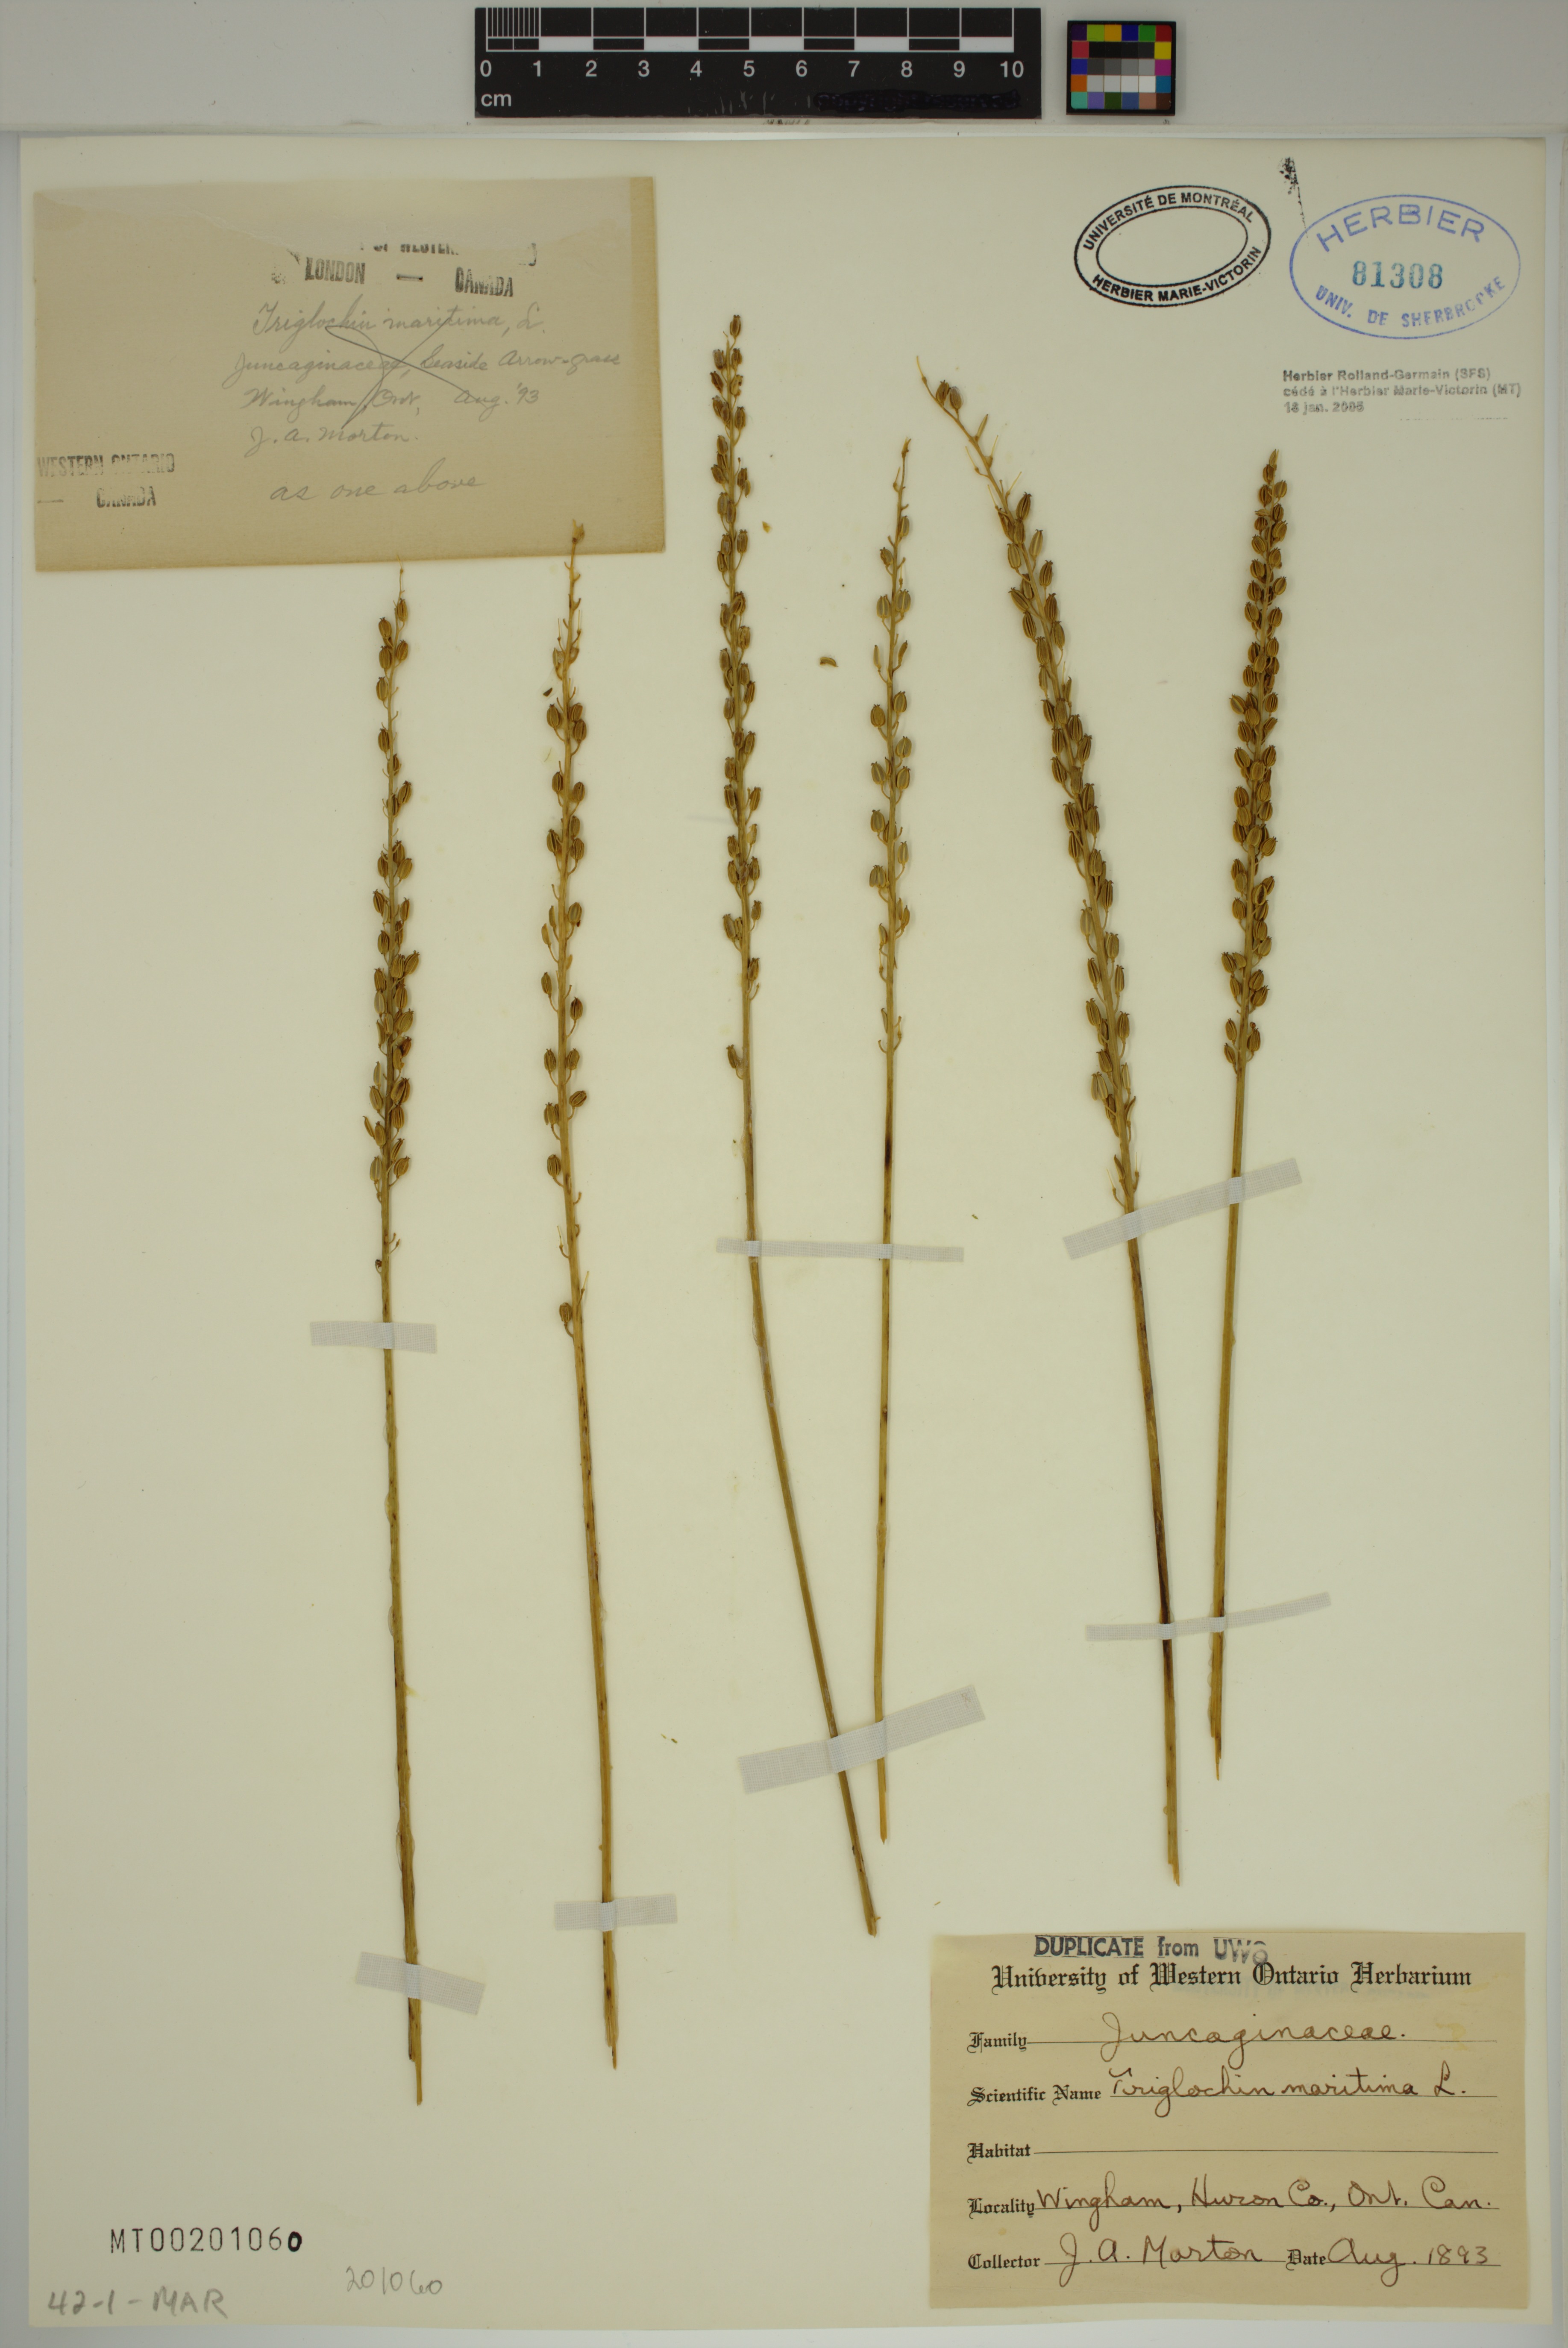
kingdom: Plantae
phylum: Tracheophyta
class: Liliopsida
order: Alismatales
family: Juncaginaceae
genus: Triglochin
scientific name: Triglochin maritima
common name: Sea arrowgrass
